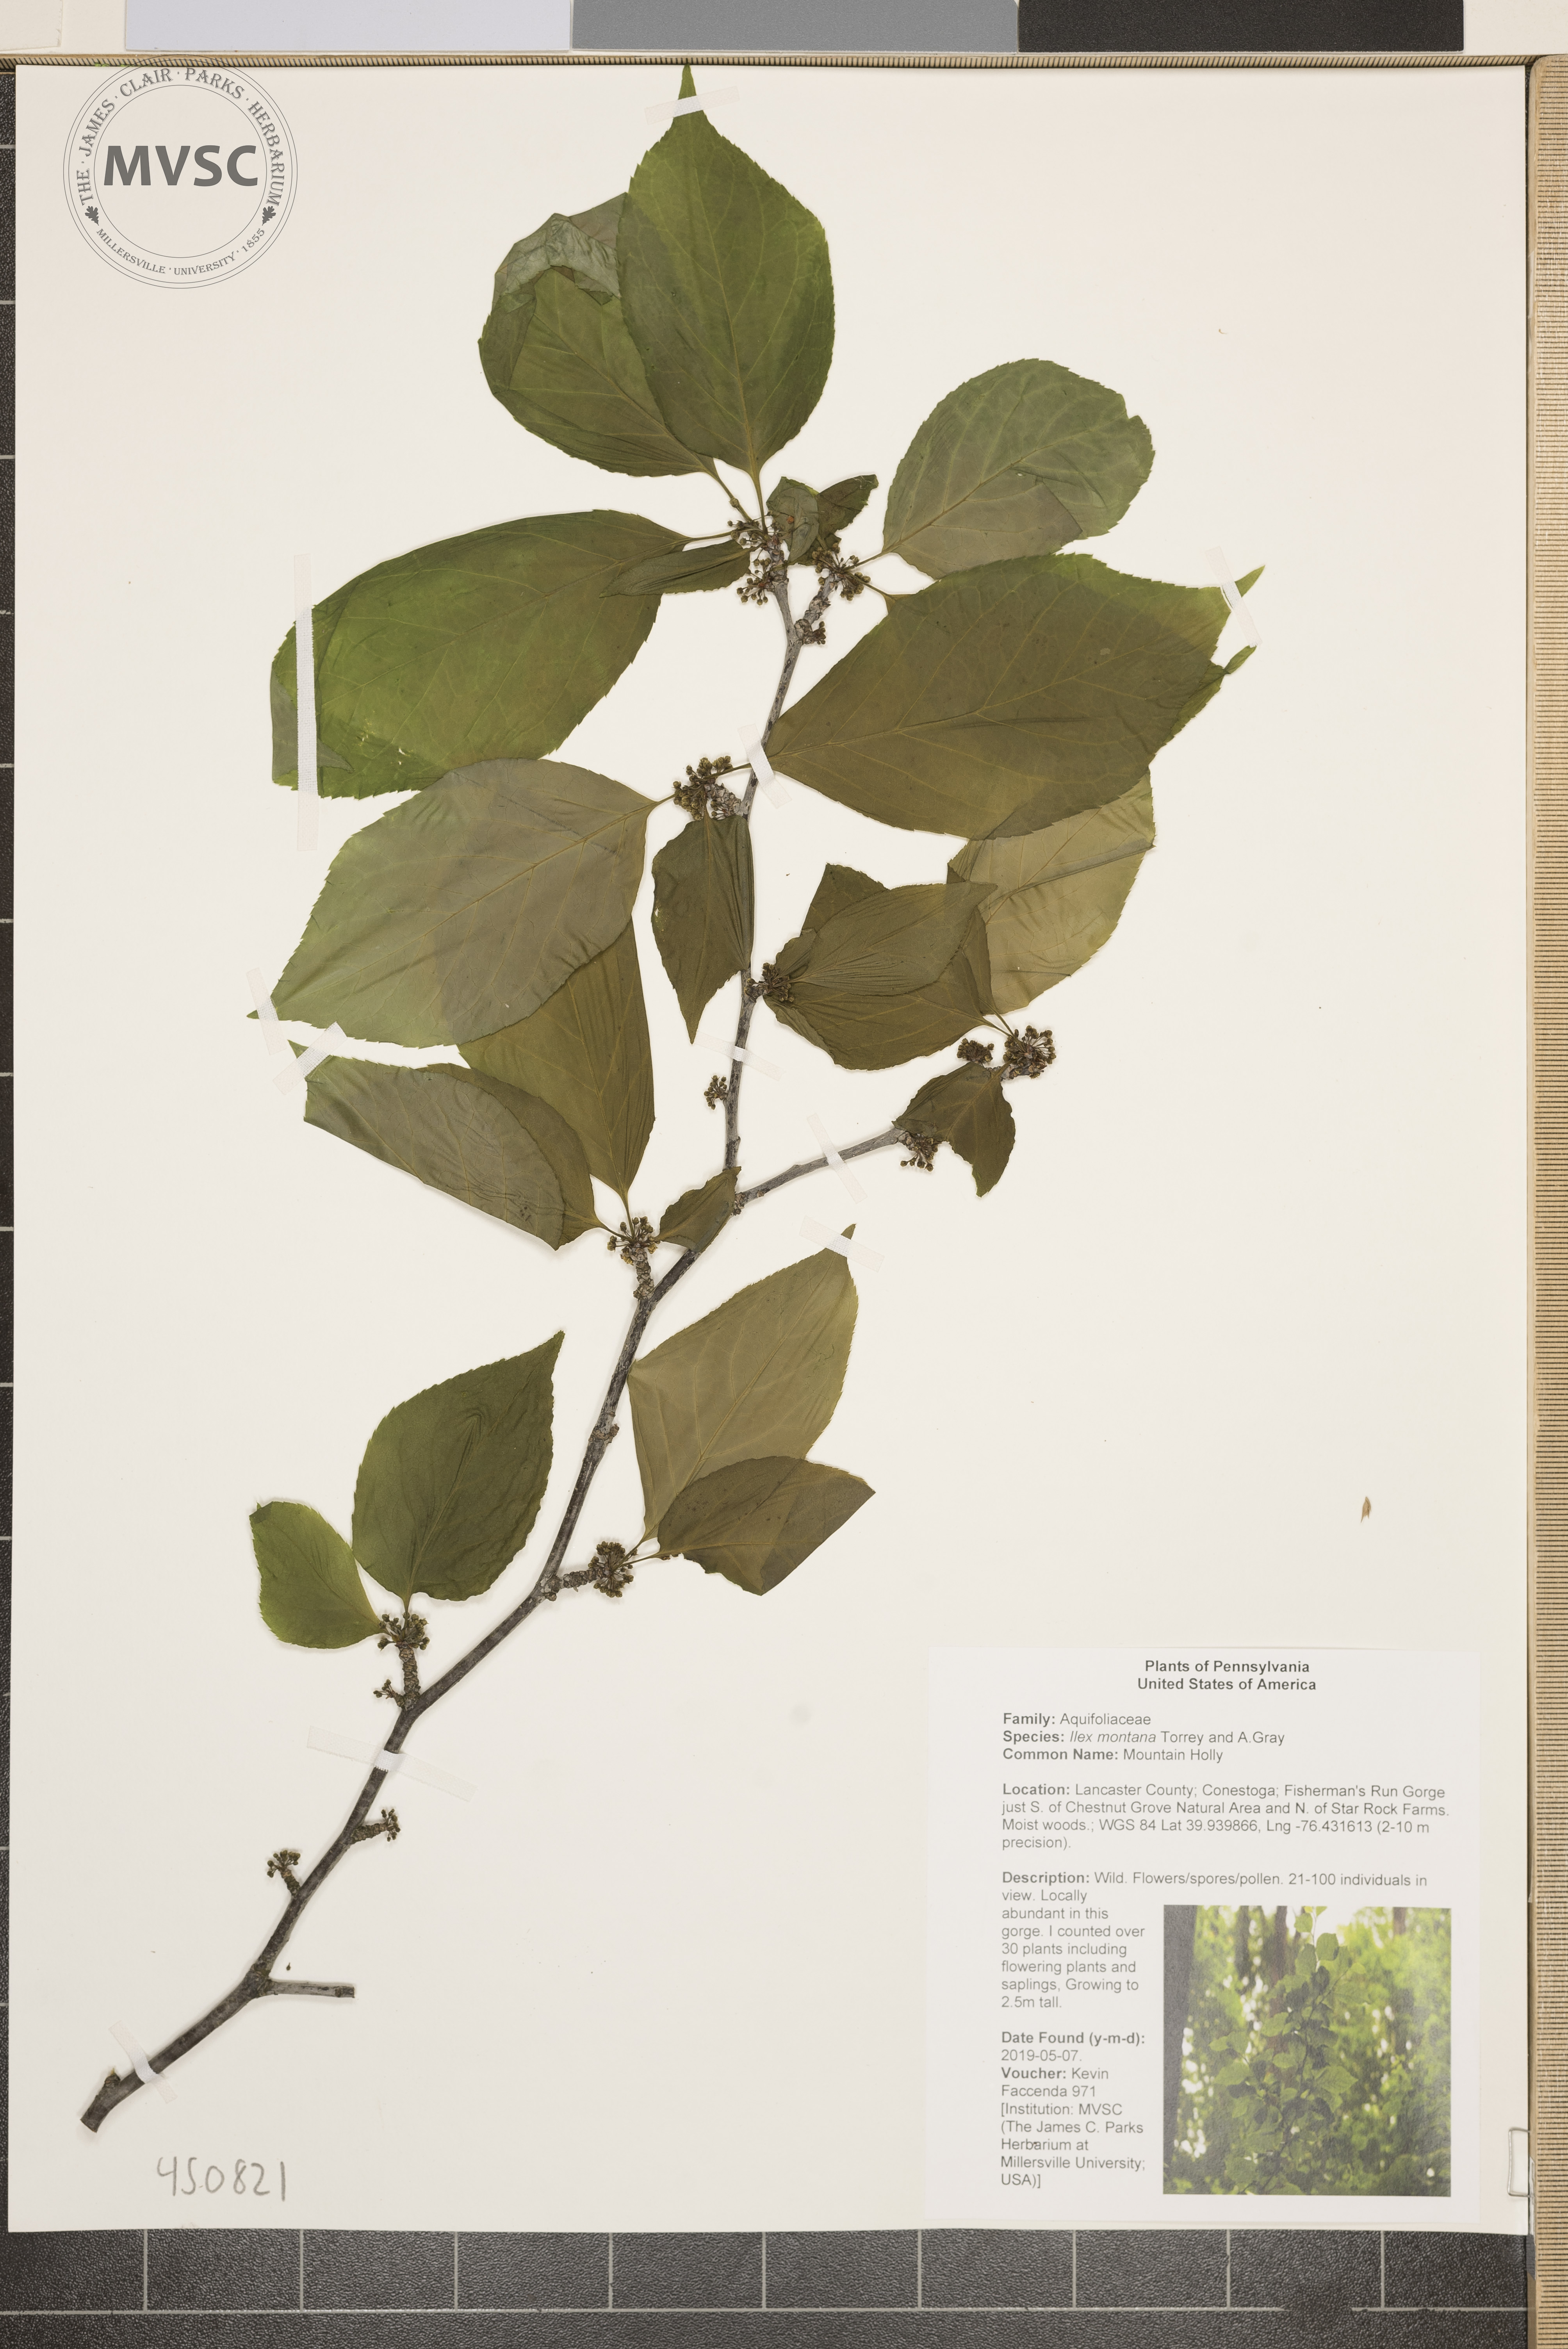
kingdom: Plantae
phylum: Tracheophyta
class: Magnoliopsida
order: Aquifoliales
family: Aquifoliaceae
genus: Ilex
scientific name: Ilex montana
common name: Mountain Holly
